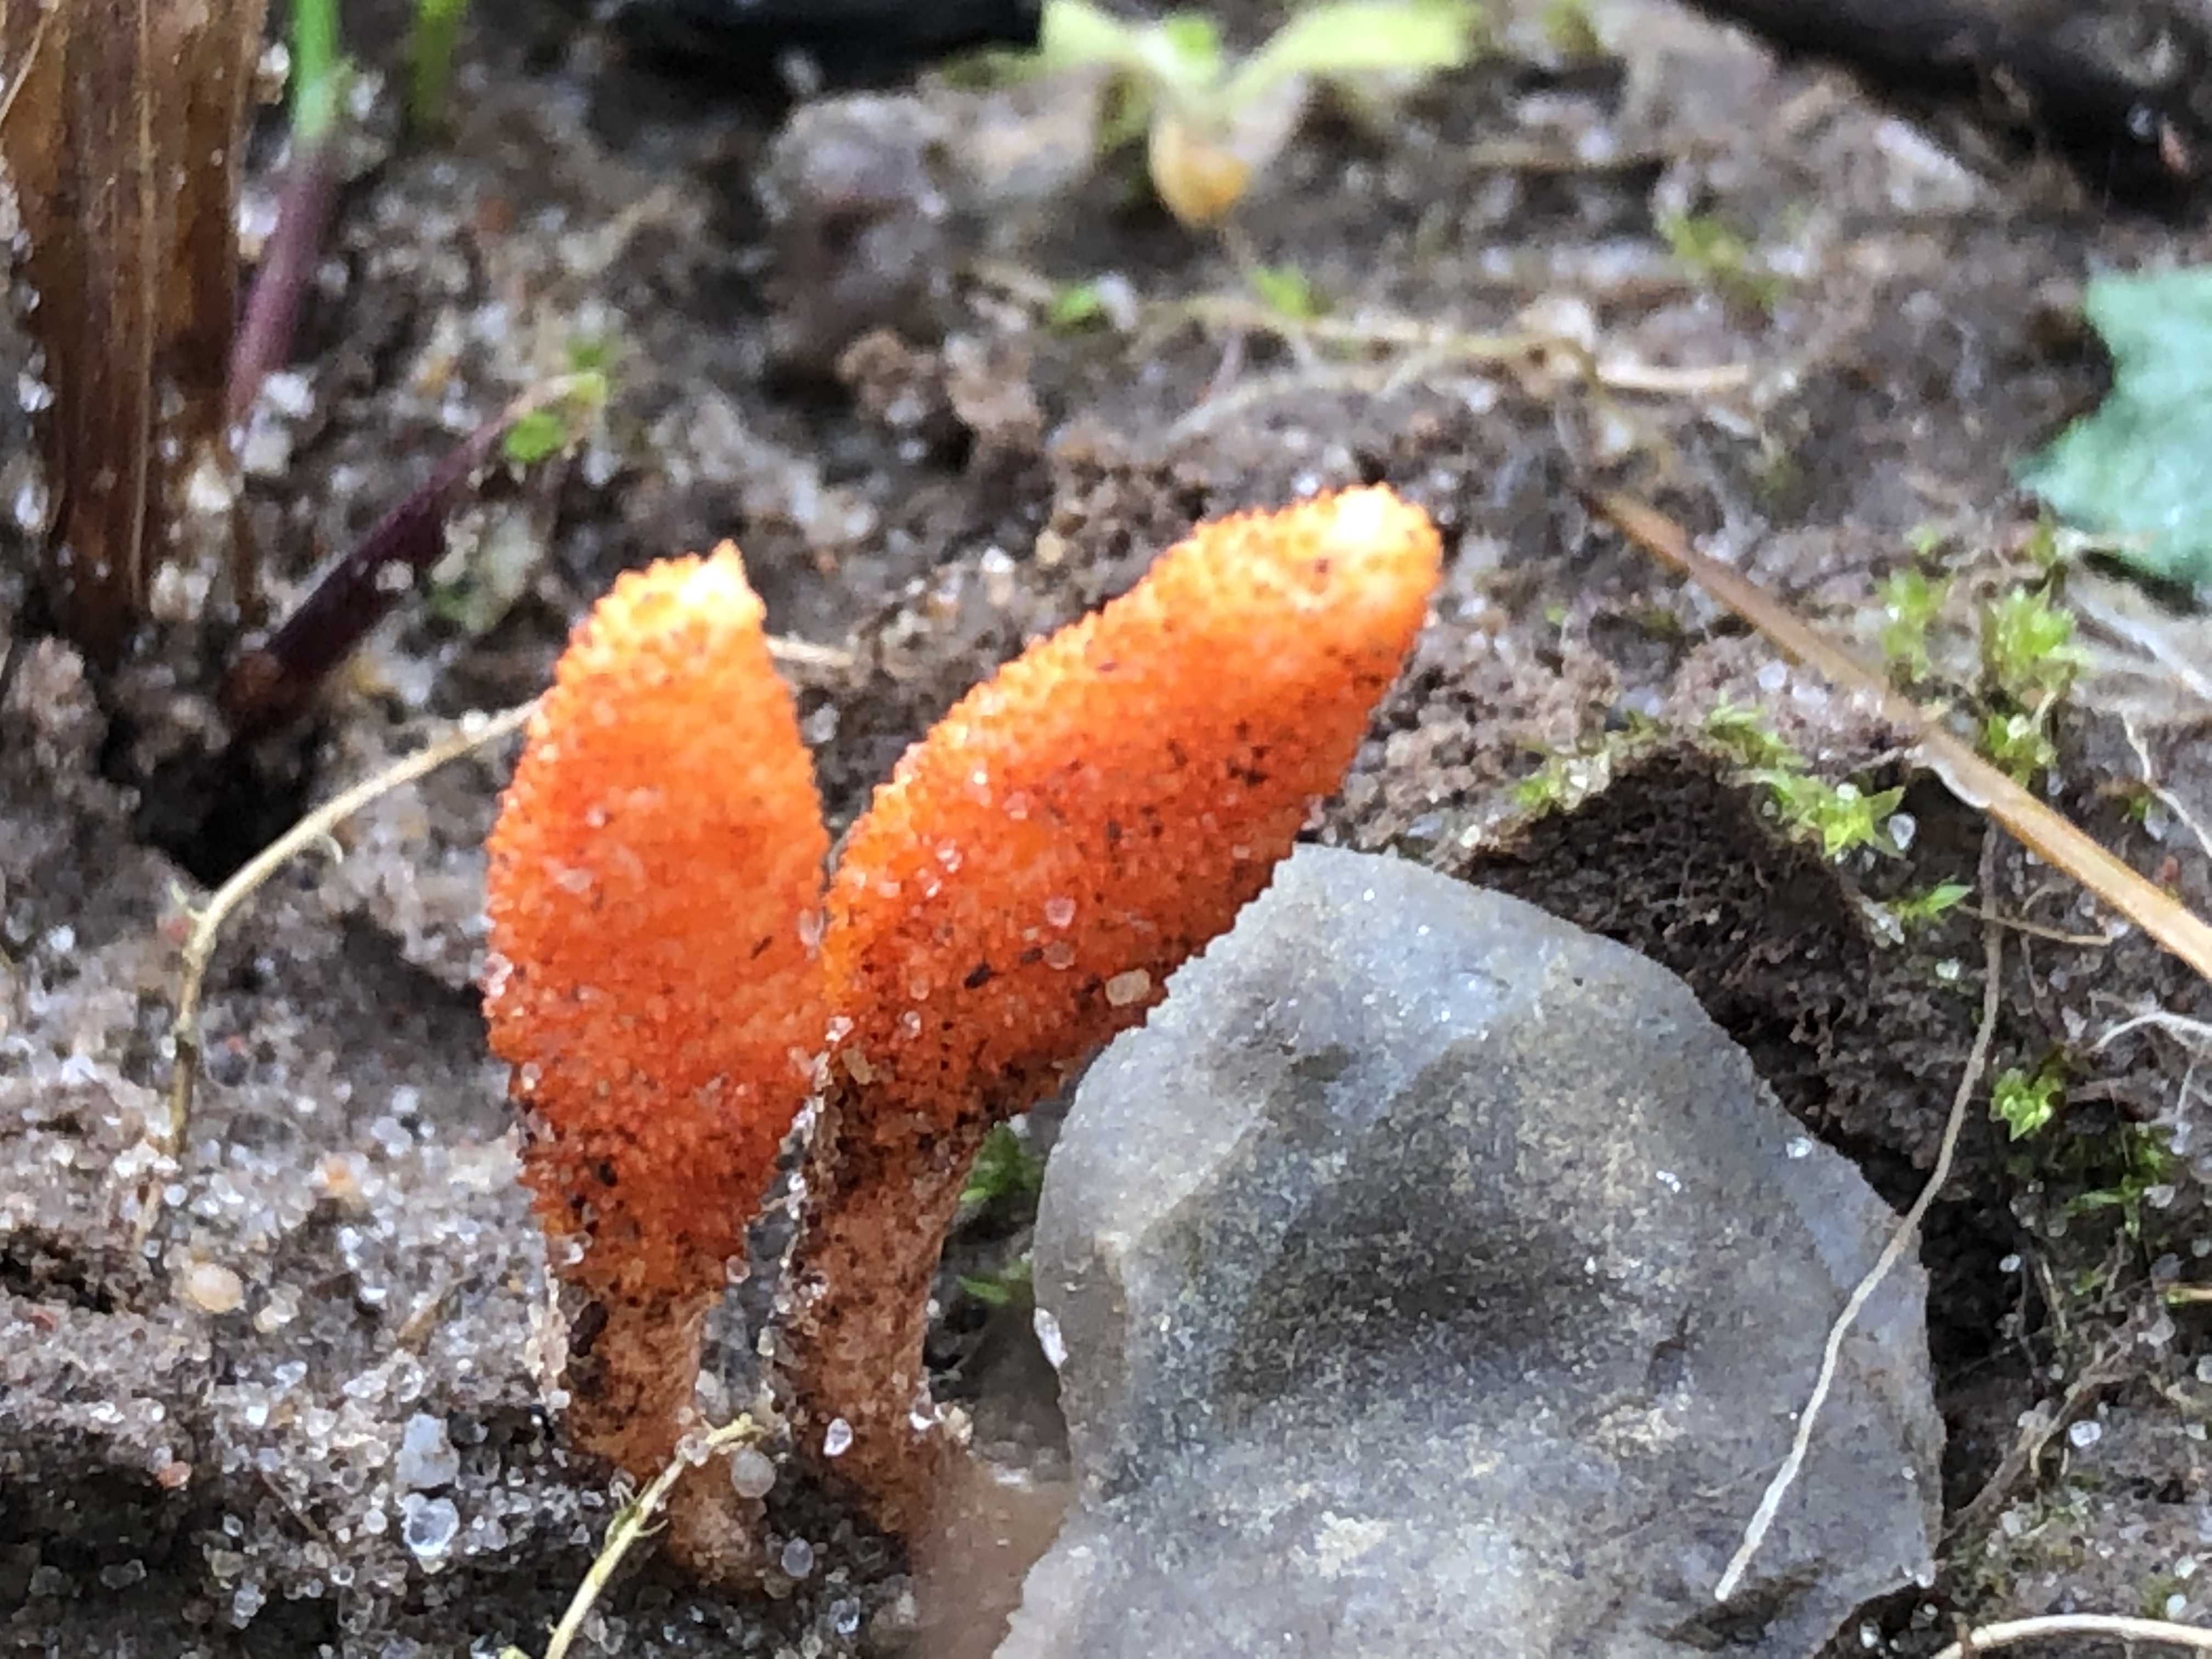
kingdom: Fungi
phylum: Ascomycota
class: Sordariomycetes
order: Hypocreales
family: Cordycipitaceae
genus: Cordyceps
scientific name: Cordyceps militaris
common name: puppe-snyltekølle
